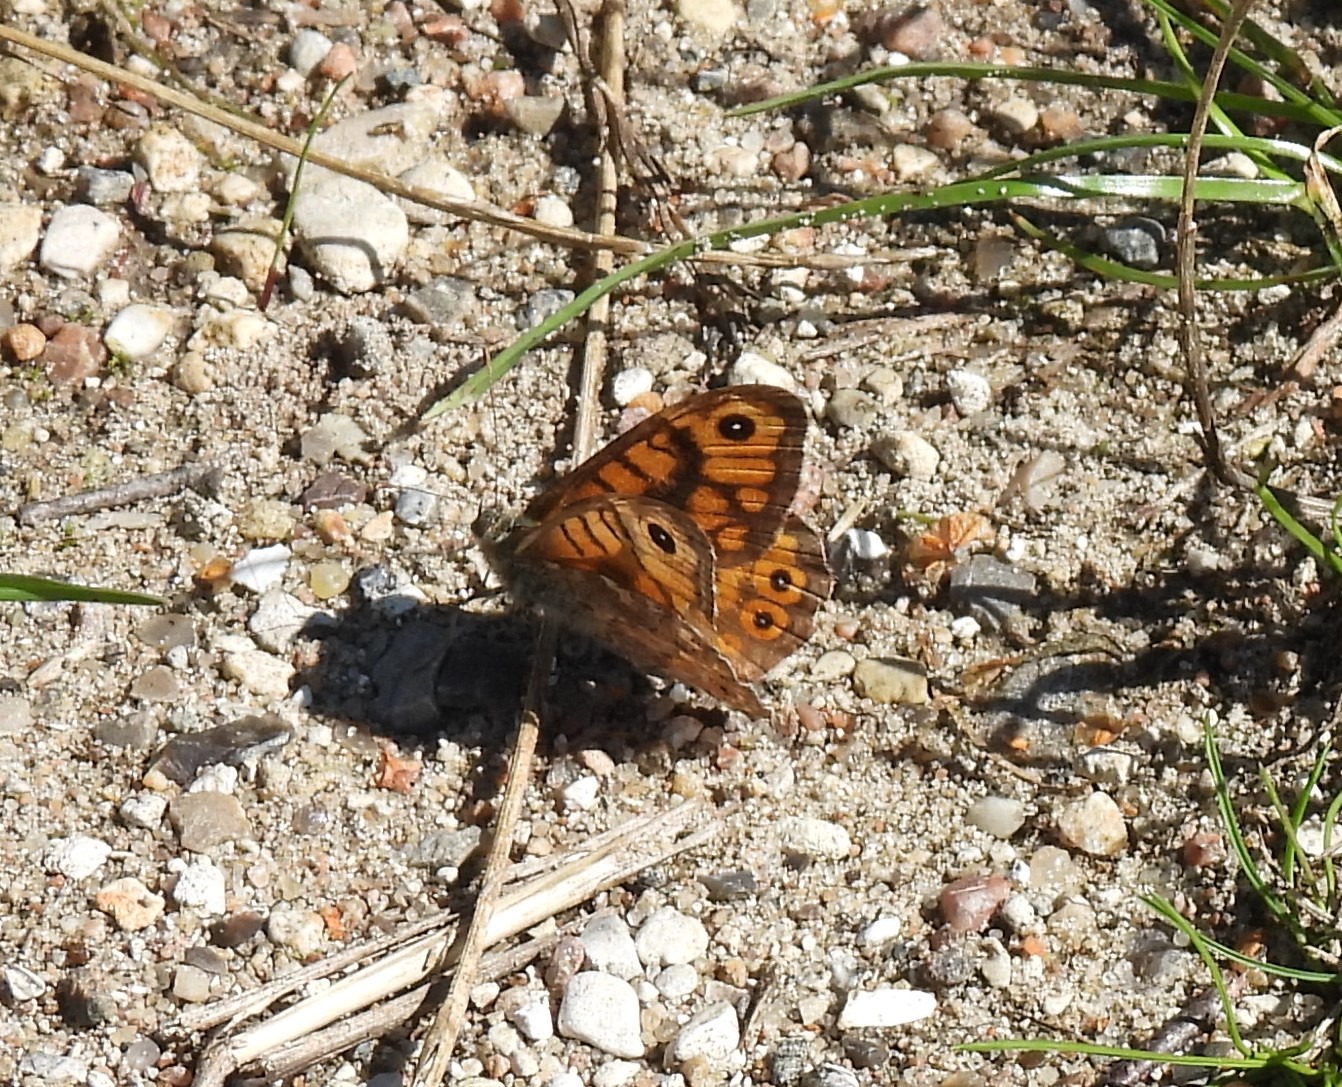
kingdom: Animalia
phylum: Arthropoda
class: Insecta
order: Lepidoptera
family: Nymphalidae
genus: Pararge
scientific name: Pararge Lasiommata megera
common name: Vejrandøje
